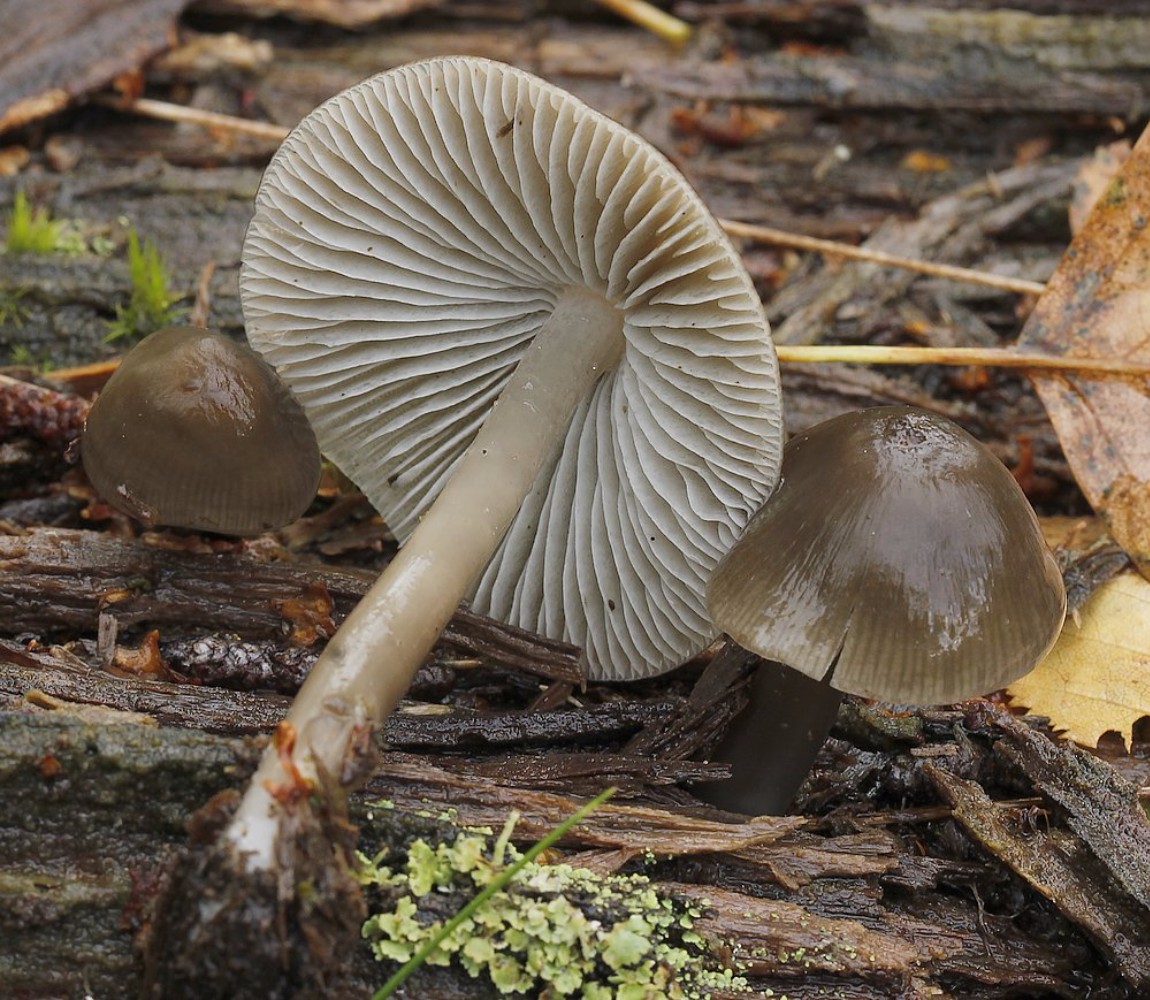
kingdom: Fungi
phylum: Basidiomycota
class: Agaricomycetes
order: Agaricales
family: Mycenaceae
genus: Mycena
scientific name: Mycena galericulata
